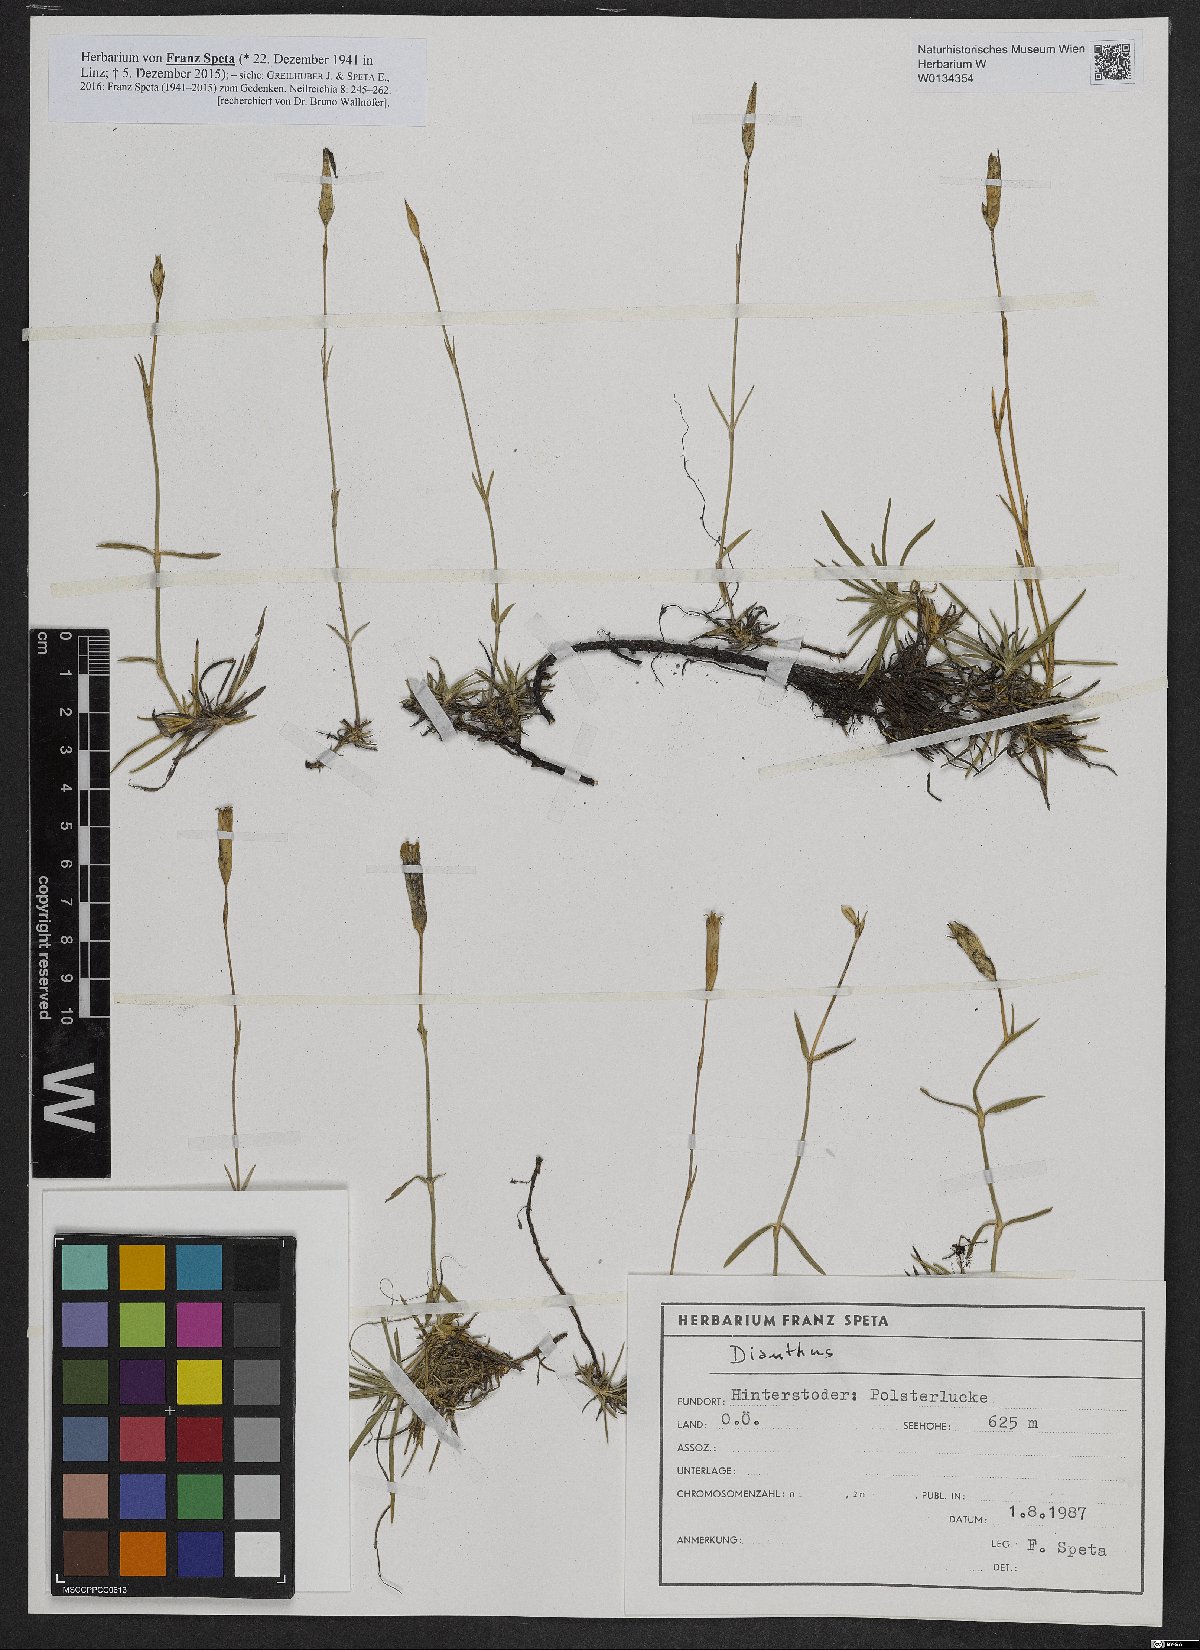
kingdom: Plantae
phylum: Tracheophyta
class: Magnoliopsida
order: Caryophyllales
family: Caryophyllaceae
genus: Dianthus
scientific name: Dianthus plumarius
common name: Pink
